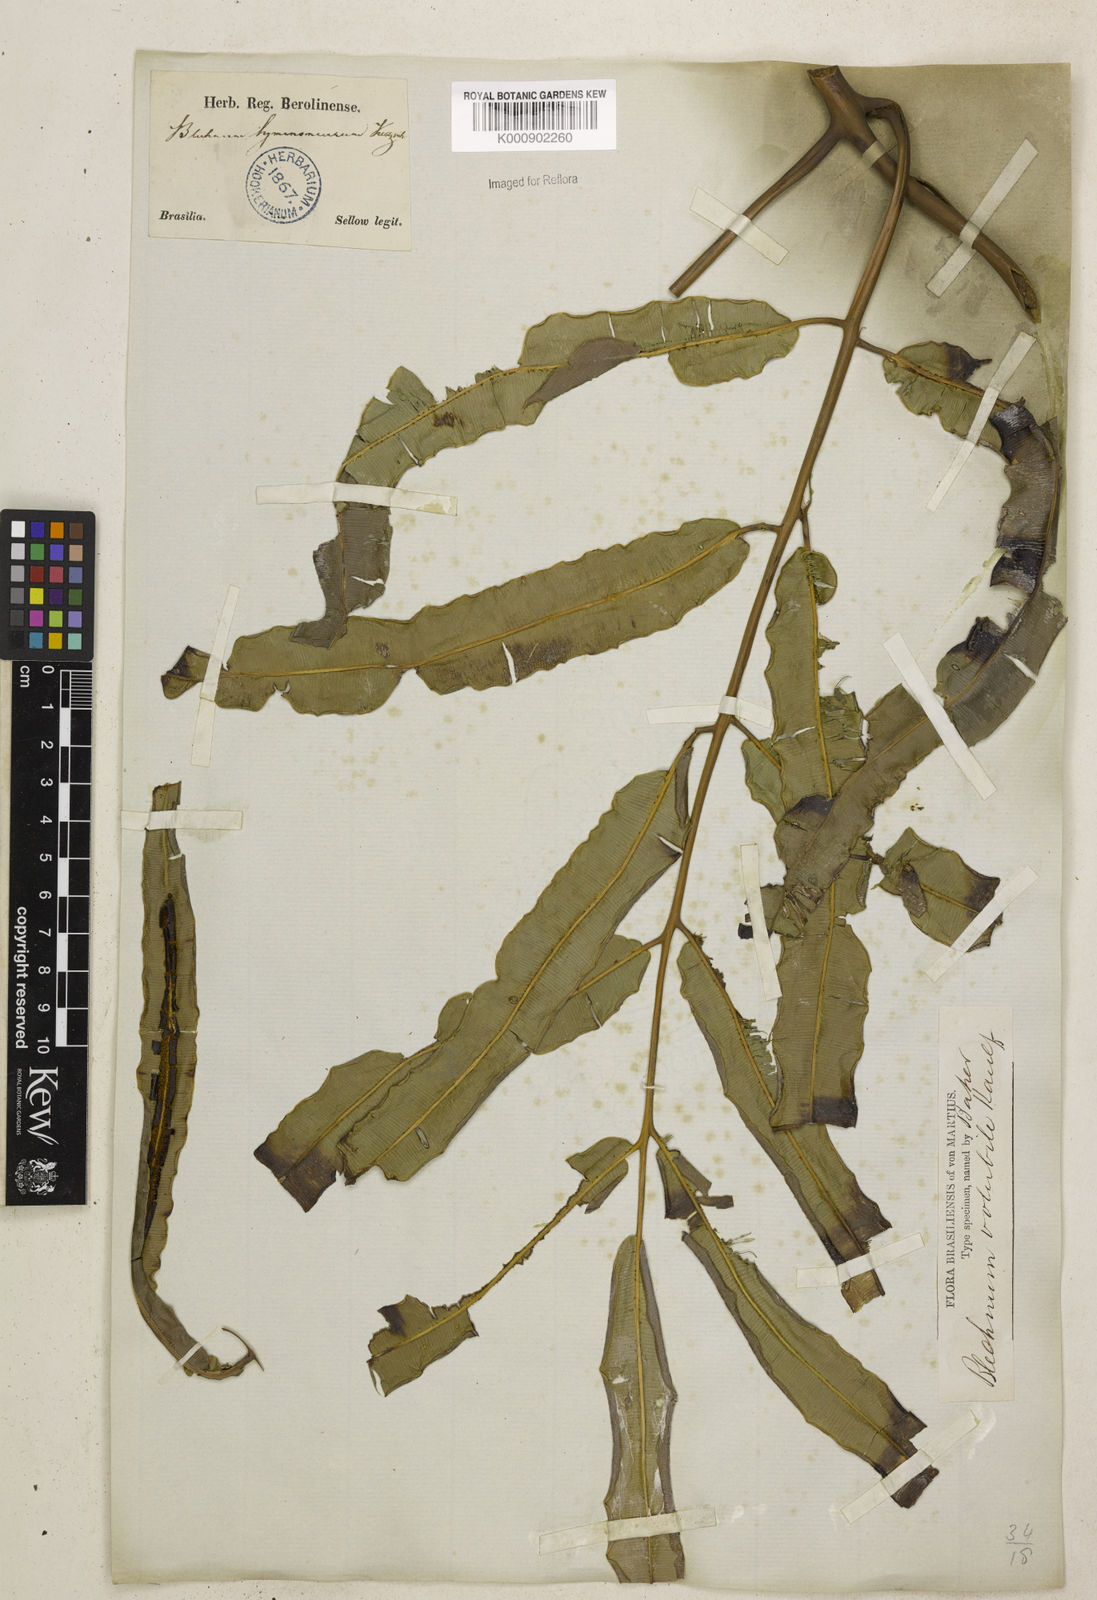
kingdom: Plantae
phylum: Tracheophyta
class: Polypodiopsida
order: Polypodiales
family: Blechnaceae
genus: Salpichlaena
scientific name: Salpichlaena volubilis
